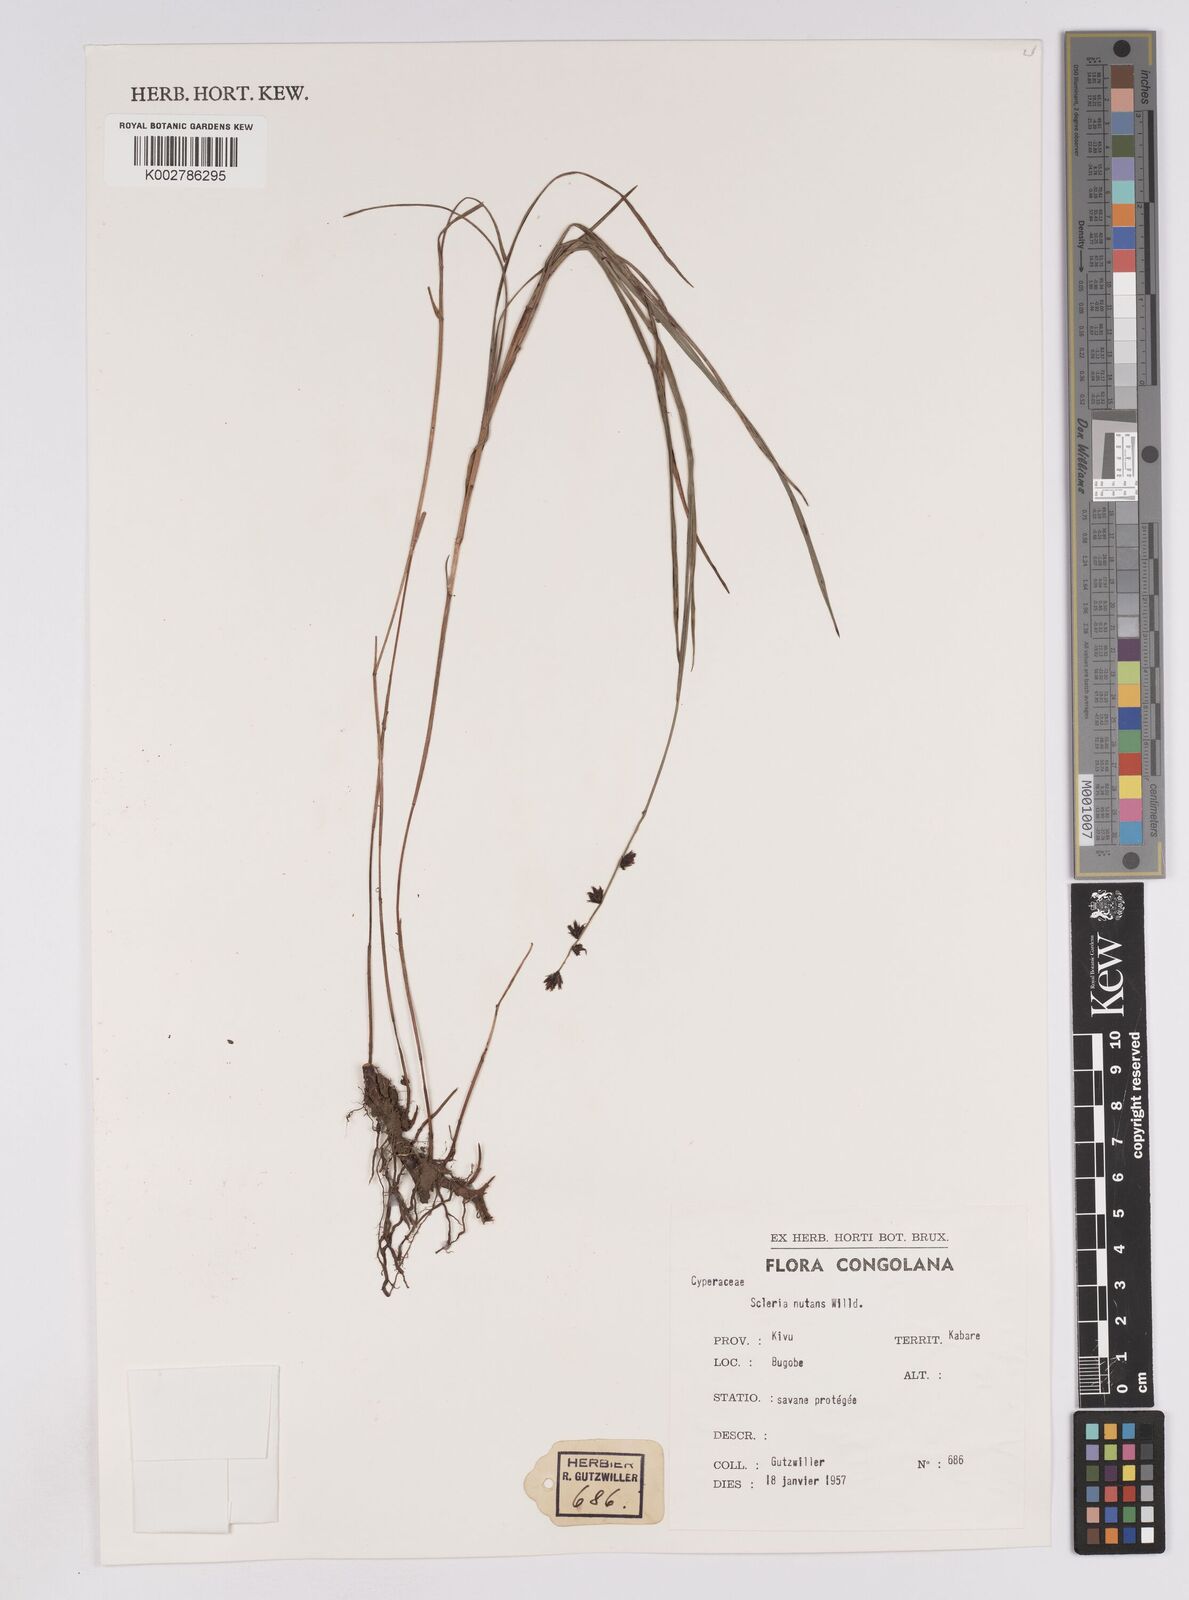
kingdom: Plantae
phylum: Tracheophyta
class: Liliopsida
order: Poales
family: Cyperaceae
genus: Scleria
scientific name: Scleria brownii
